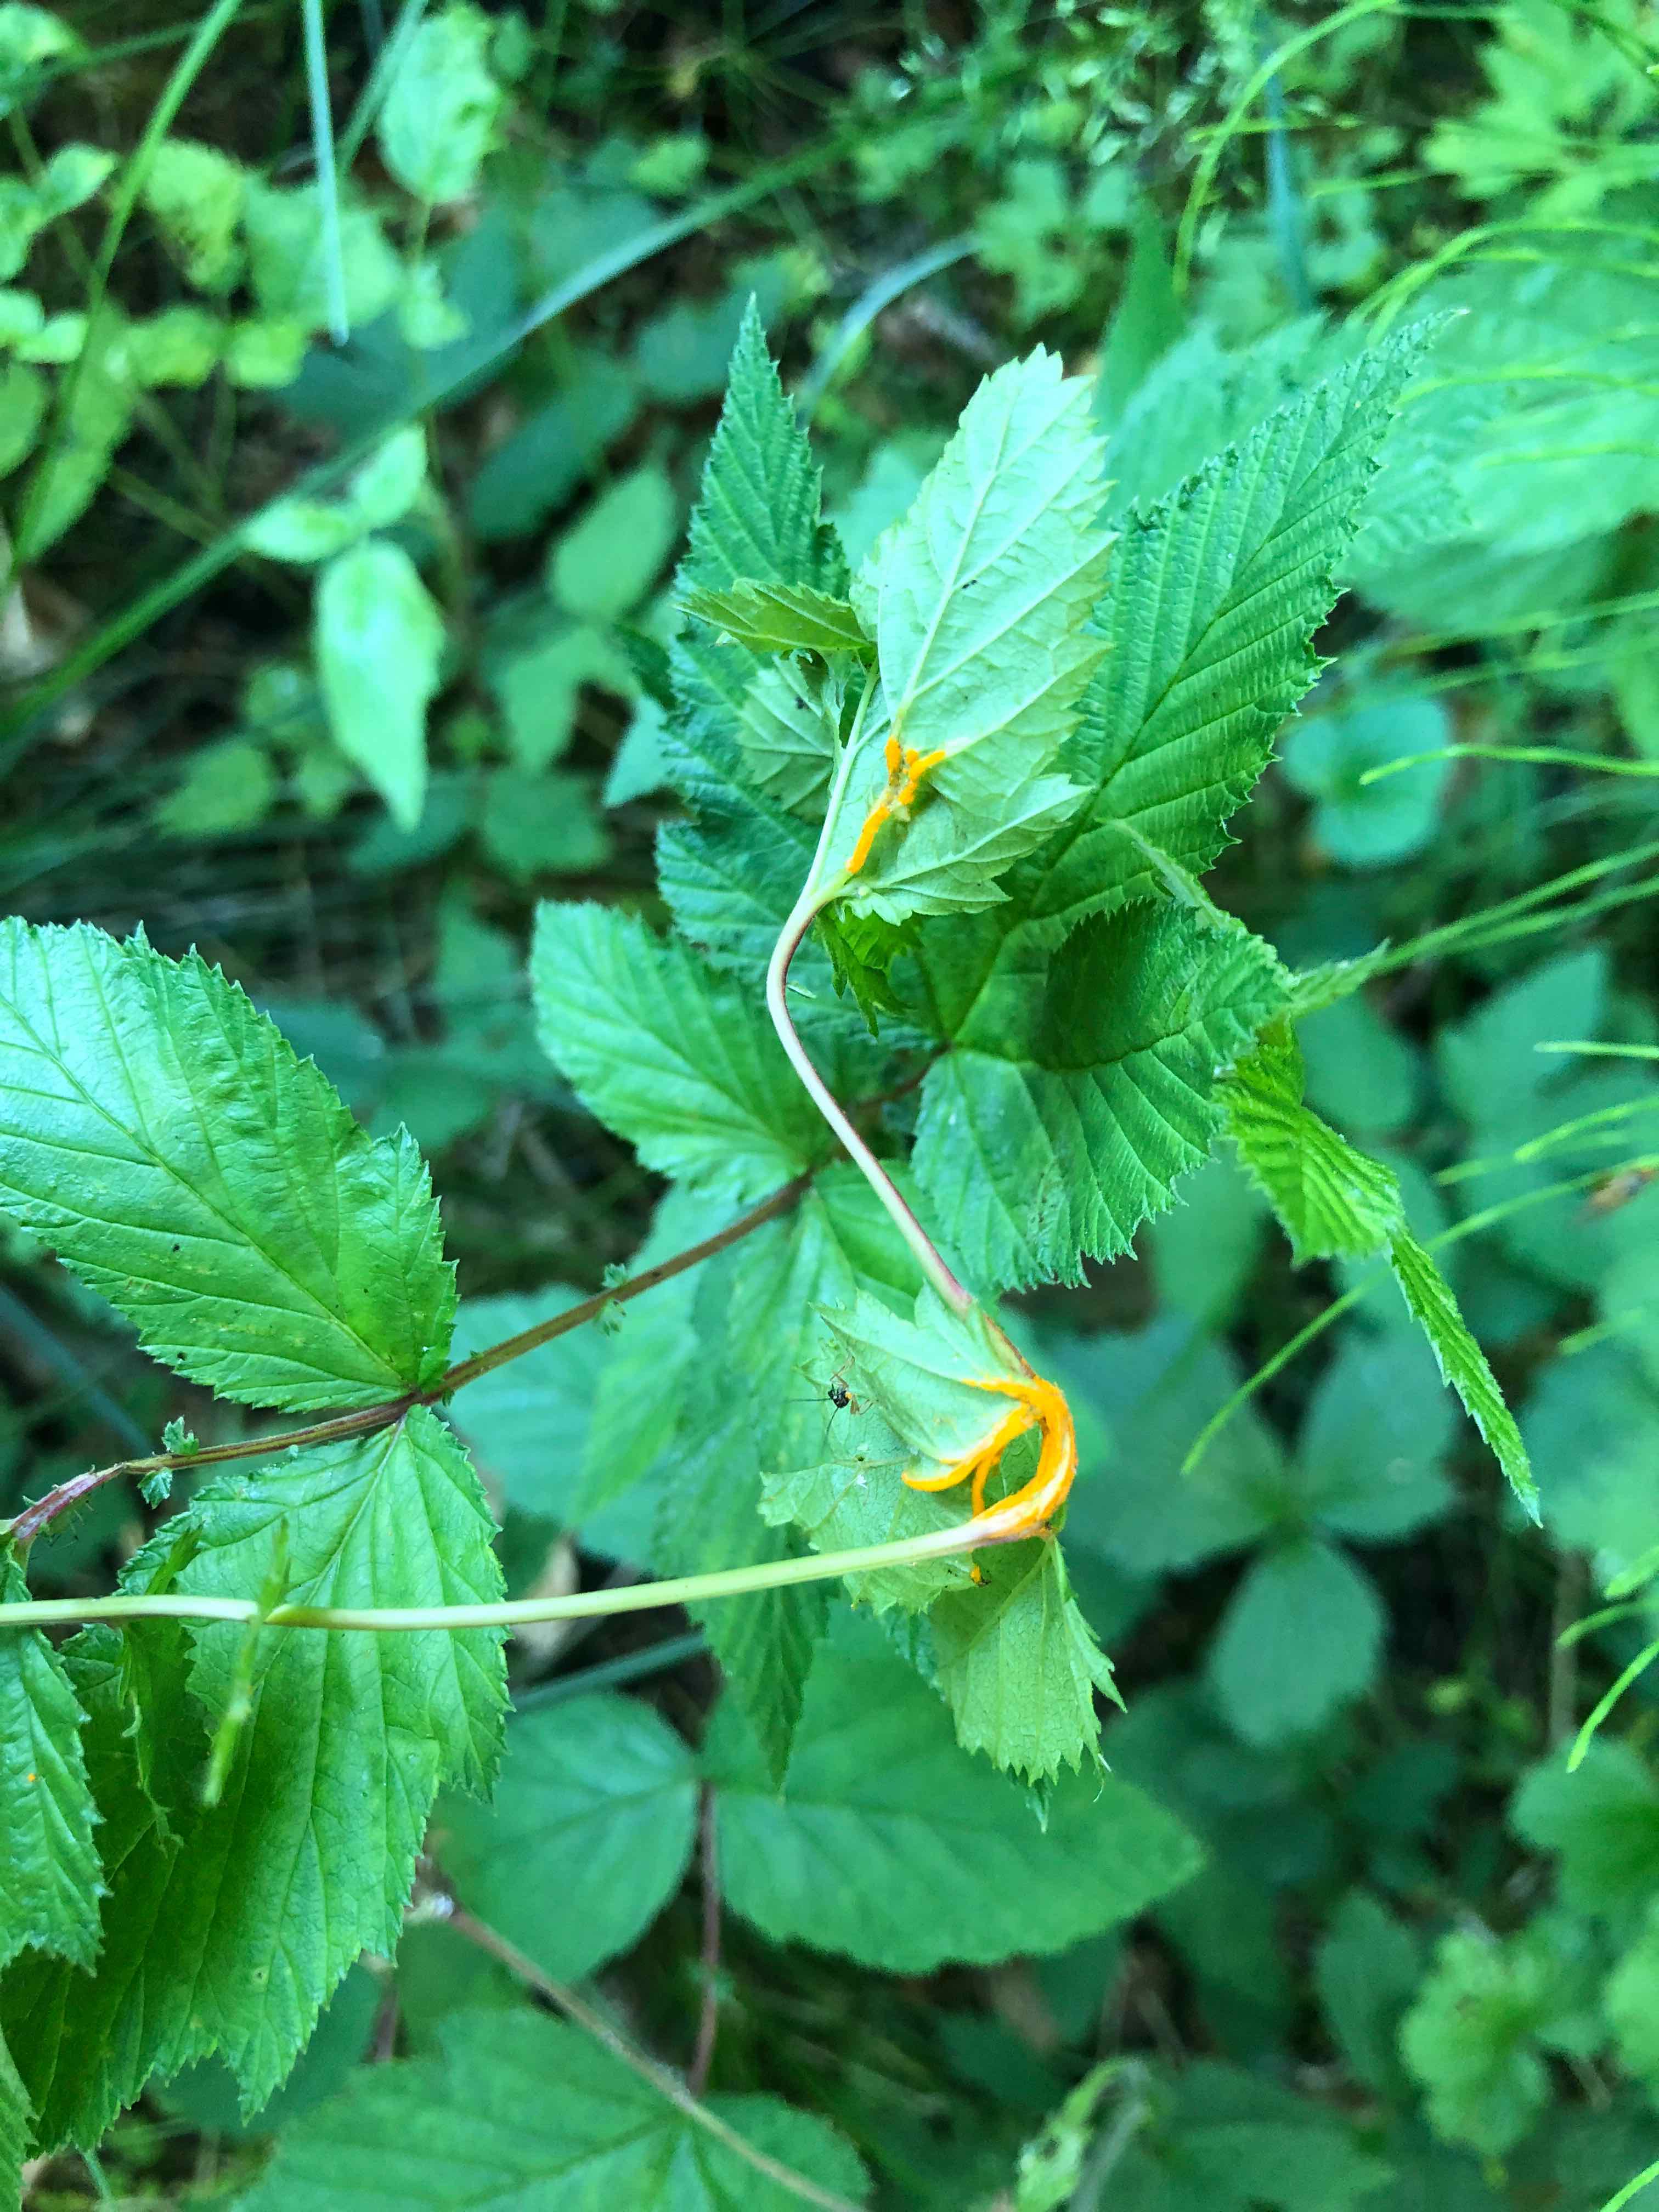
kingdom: Fungi
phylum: Basidiomycota
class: Pucciniomycetes
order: Pucciniales
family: Raveneliaceae
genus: Triphragmium
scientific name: Triphragmium ulmariae
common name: almindelig mjødurtrust
